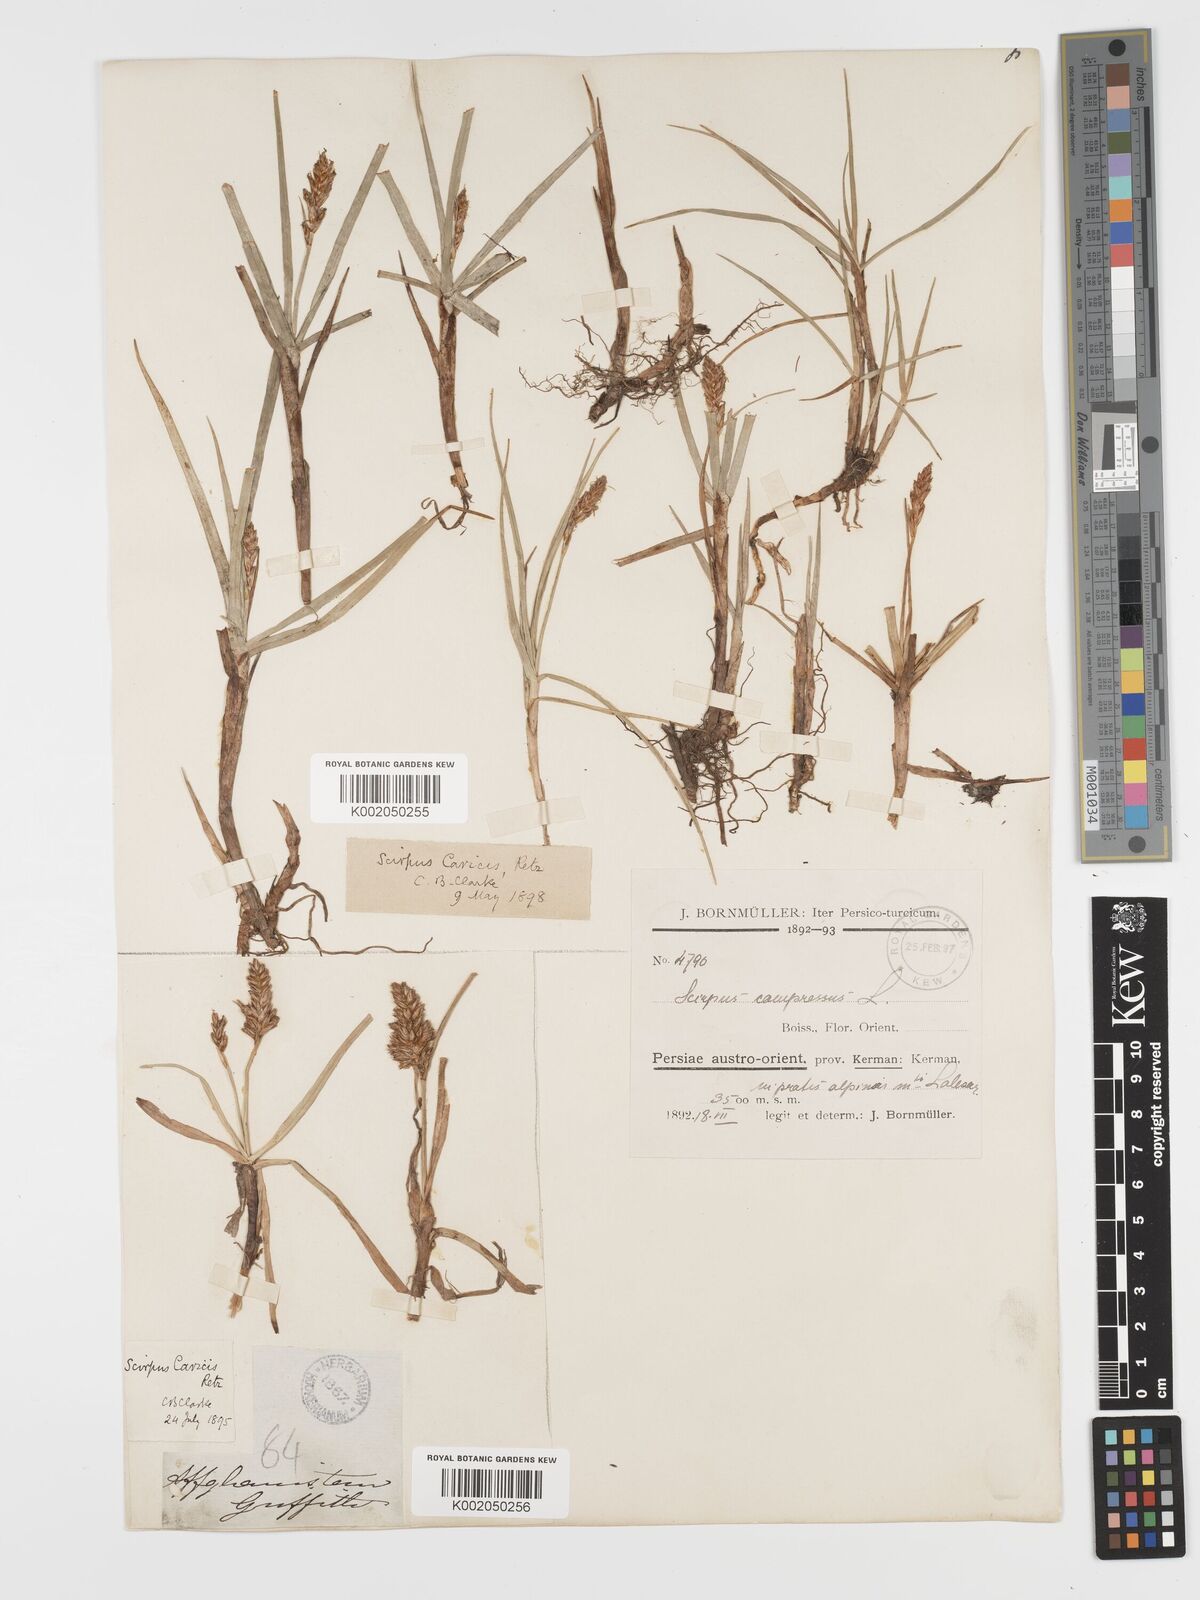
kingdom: Plantae
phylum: Tracheophyta
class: Liliopsida
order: Poales
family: Cyperaceae
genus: Blysmus
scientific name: Blysmus compressus
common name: Flat-sedge
